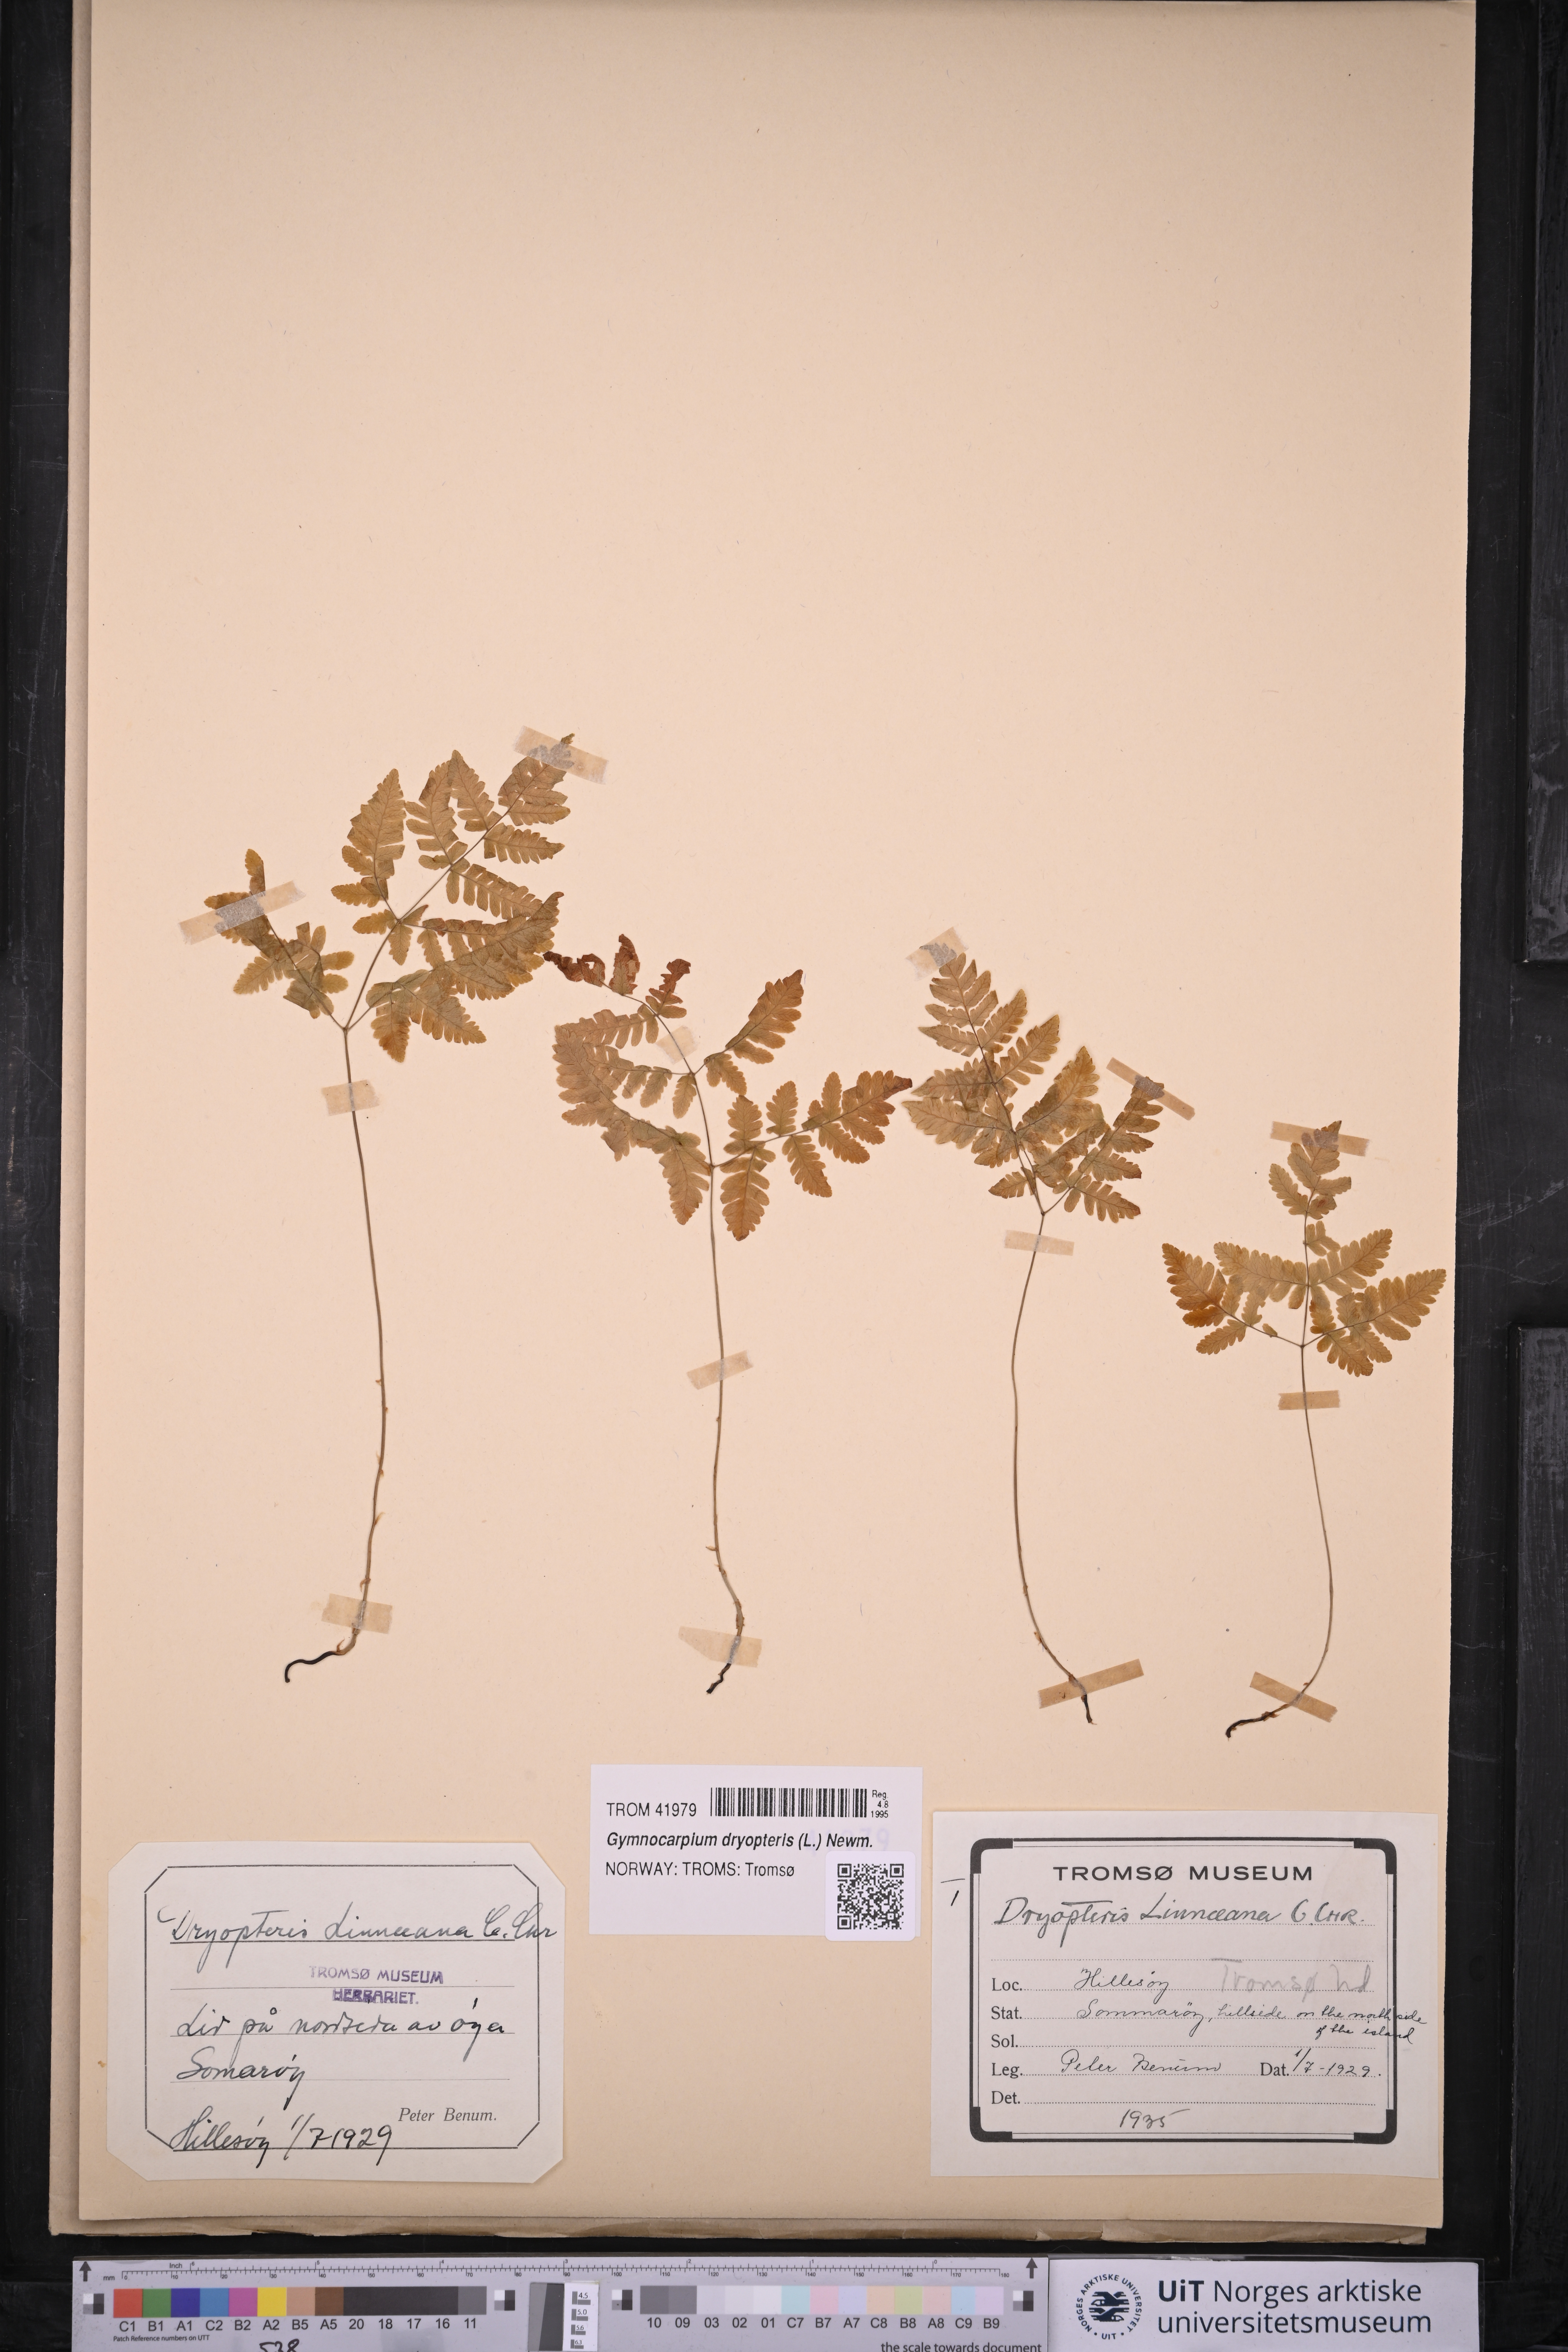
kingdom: Plantae
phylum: Tracheophyta
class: Polypodiopsida
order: Polypodiales
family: Cystopteridaceae
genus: Gymnocarpium
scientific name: Gymnocarpium dryopteris
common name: Oak fern
